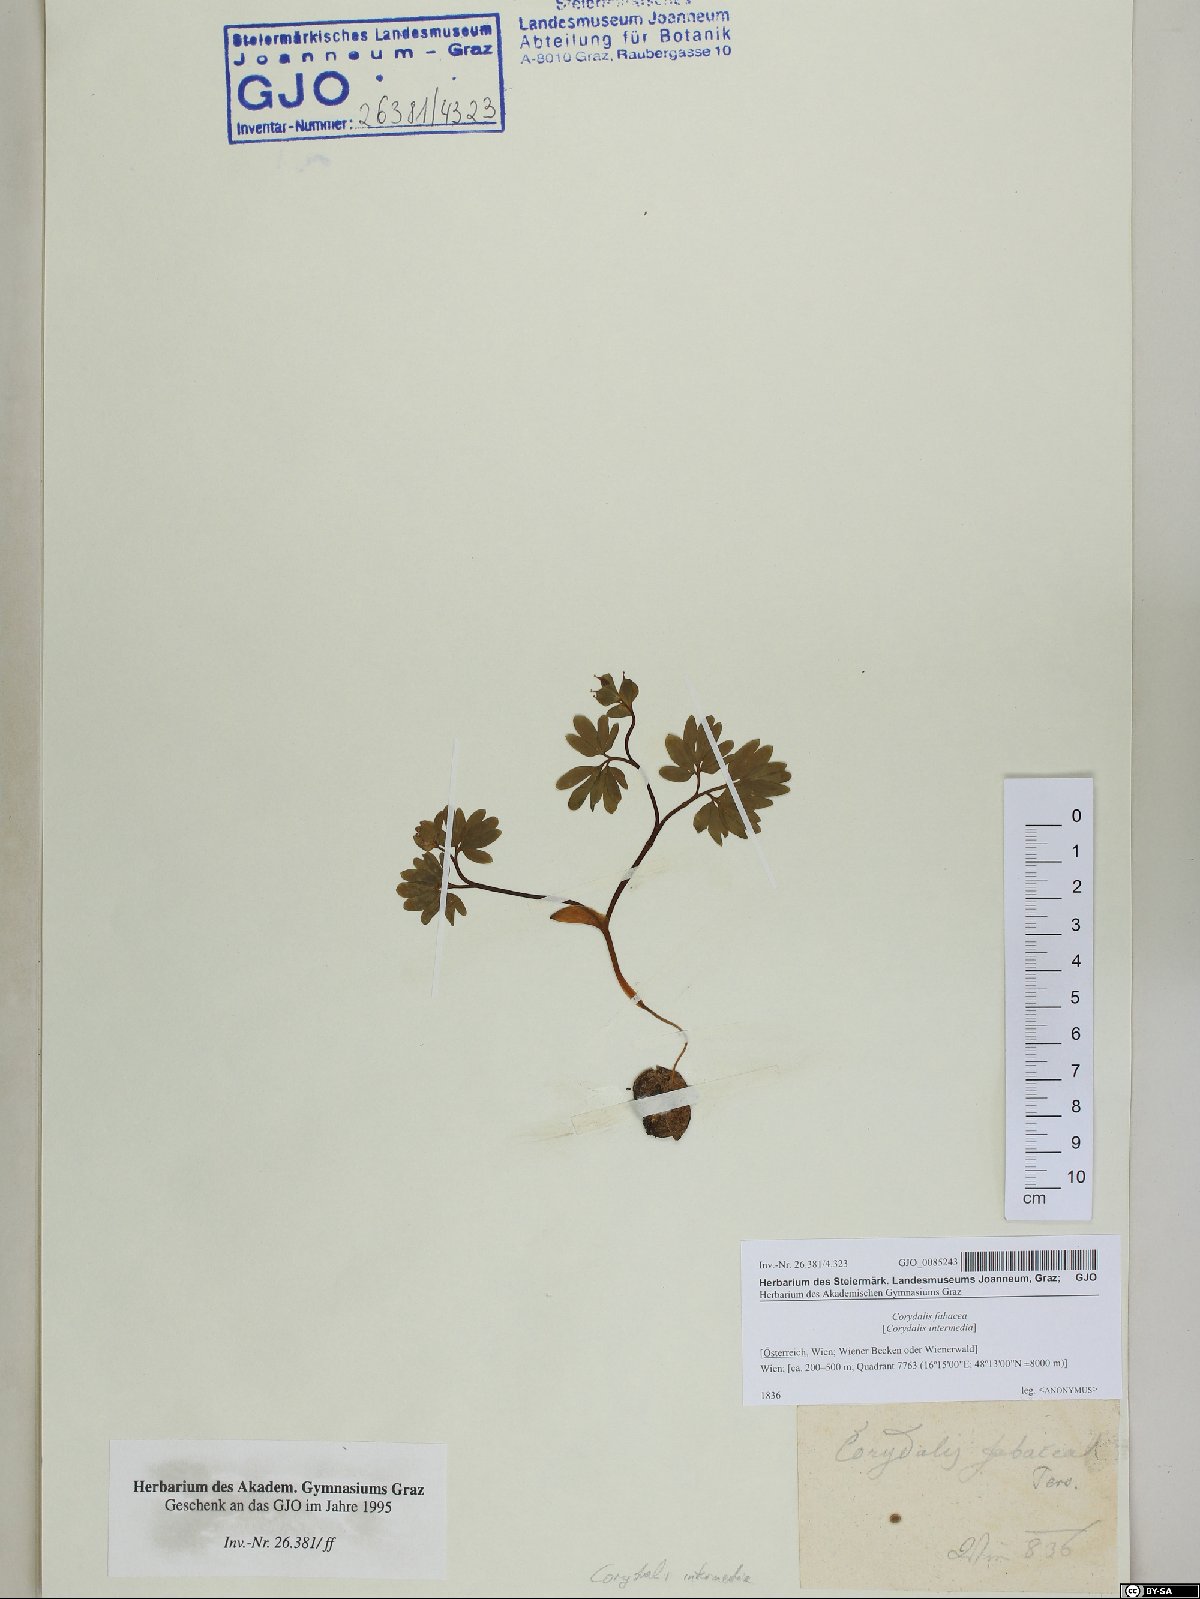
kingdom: Plantae
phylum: Tracheophyta
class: Magnoliopsida
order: Ranunculales
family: Papaveraceae
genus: Corydalis
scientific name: Corydalis intermedia
